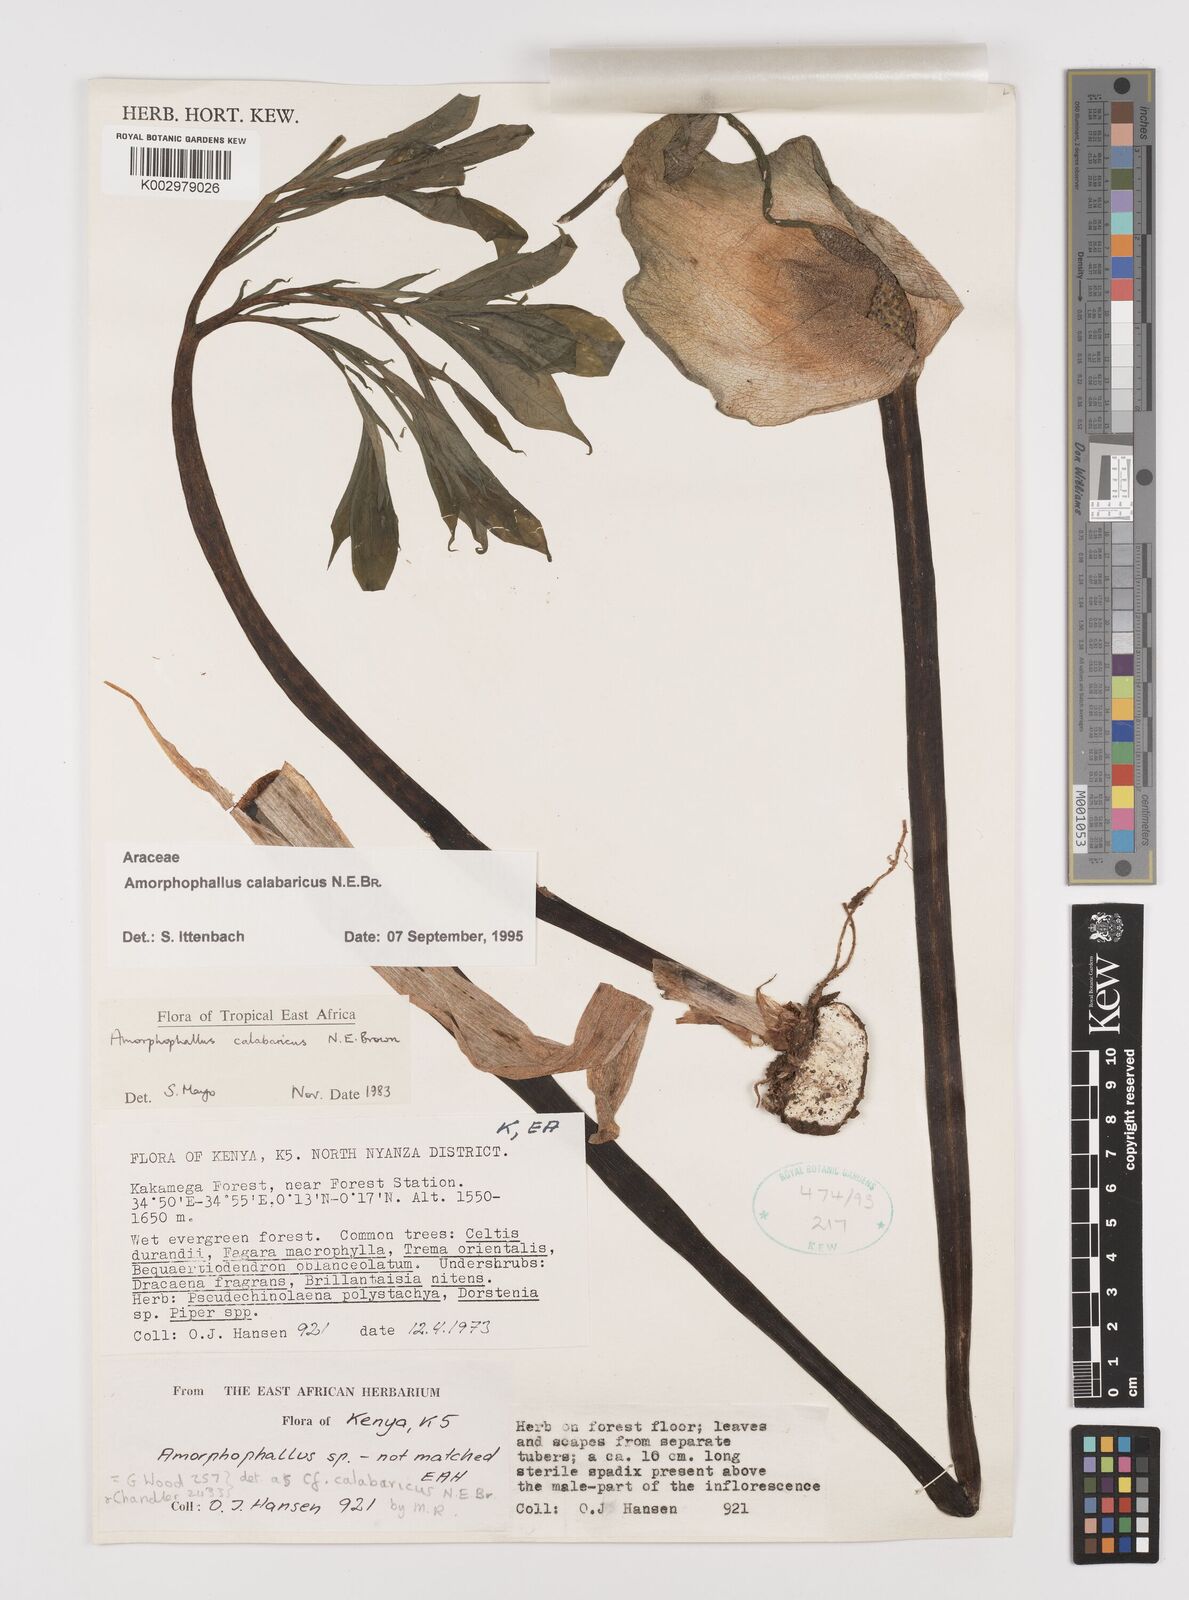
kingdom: Plantae
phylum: Tracheophyta
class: Liliopsida
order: Alismatales
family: Araceae
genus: Amorphophallus
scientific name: Amorphophallus calabaricus
